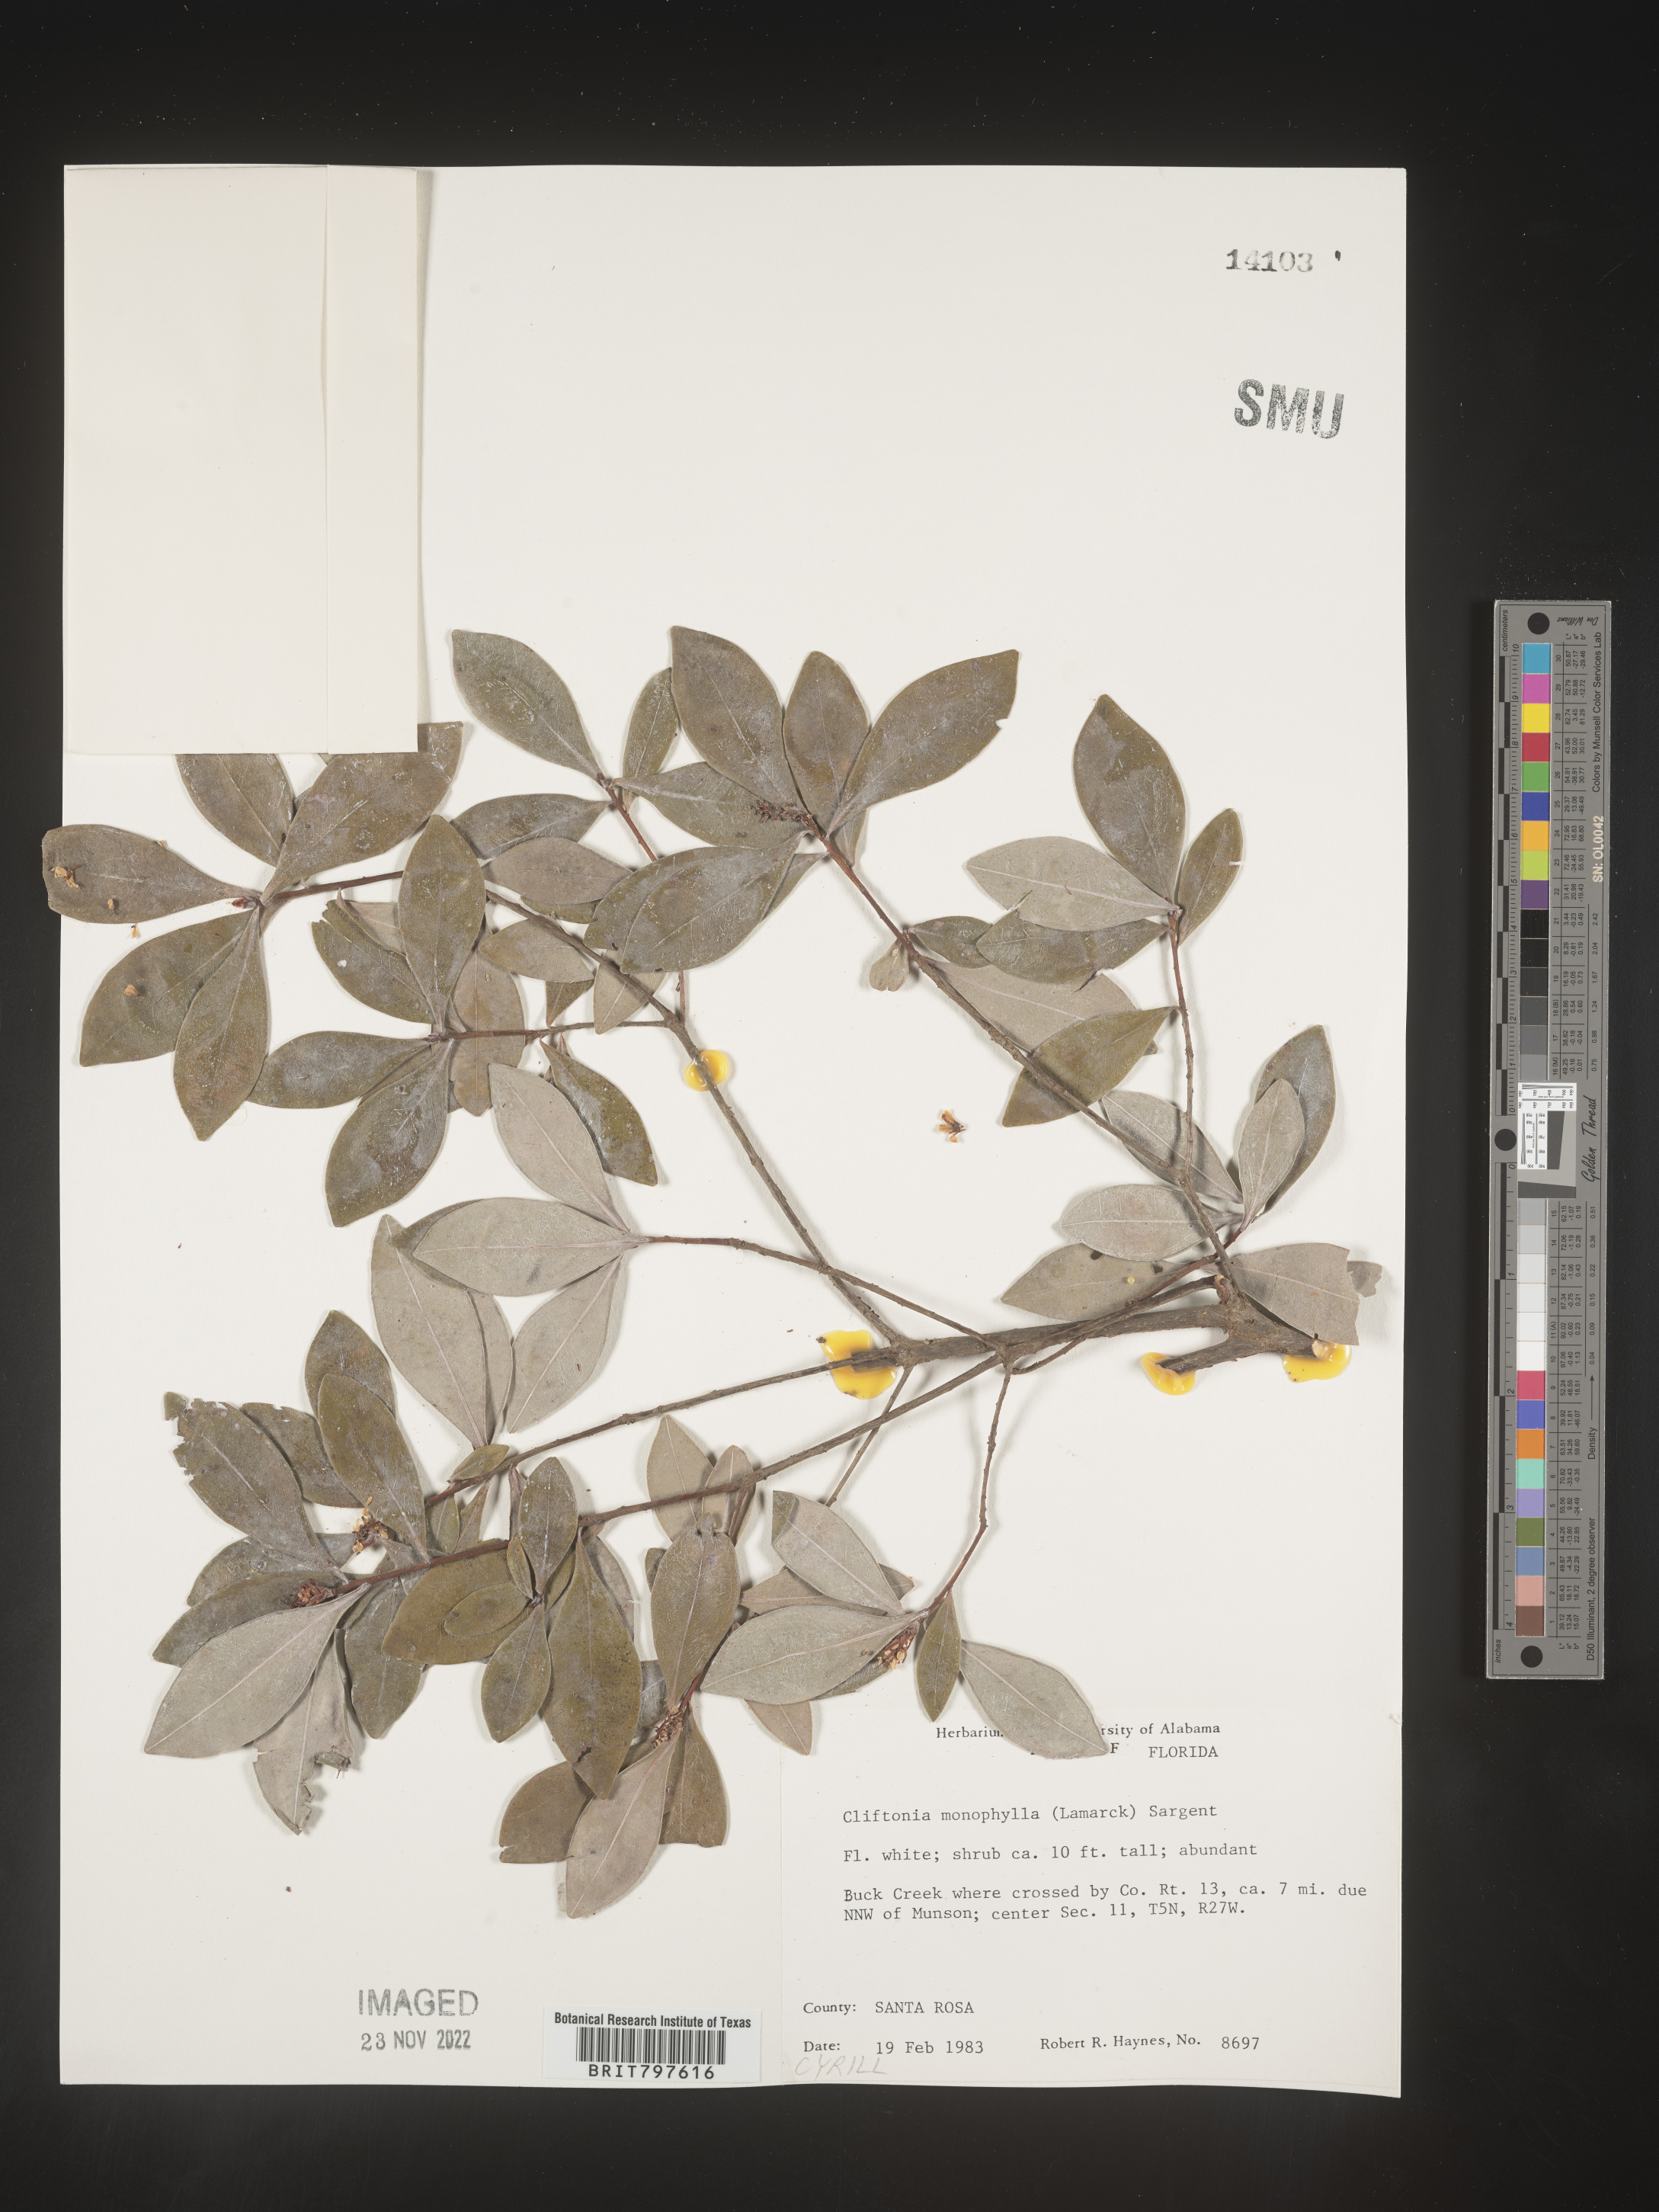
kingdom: Plantae
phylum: Tracheophyta
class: Magnoliopsida
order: Ericales
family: Cyrillaceae
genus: Cliftonia
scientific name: Cliftonia monophylla
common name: Titi
